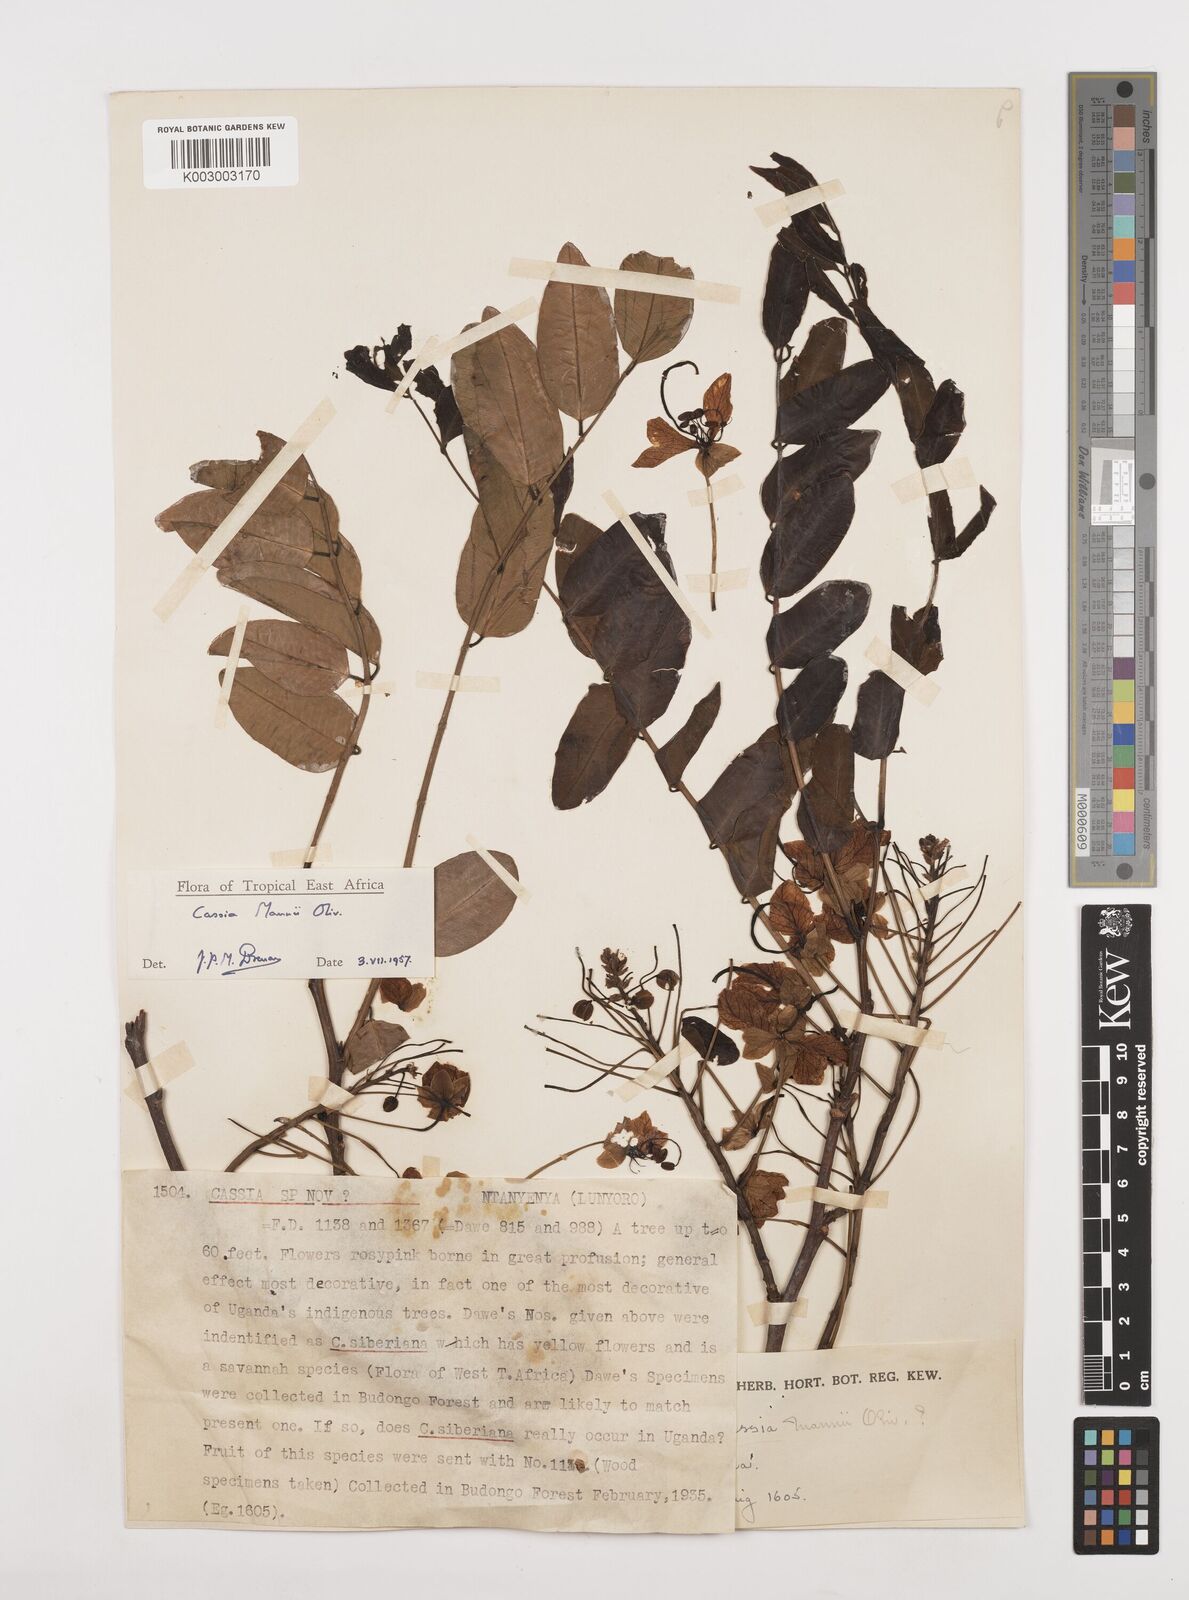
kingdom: Plantae
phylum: Tracheophyta
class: Magnoliopsida
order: Fabales
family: Fabaceae
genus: Cassia
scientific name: Cassia mannii
